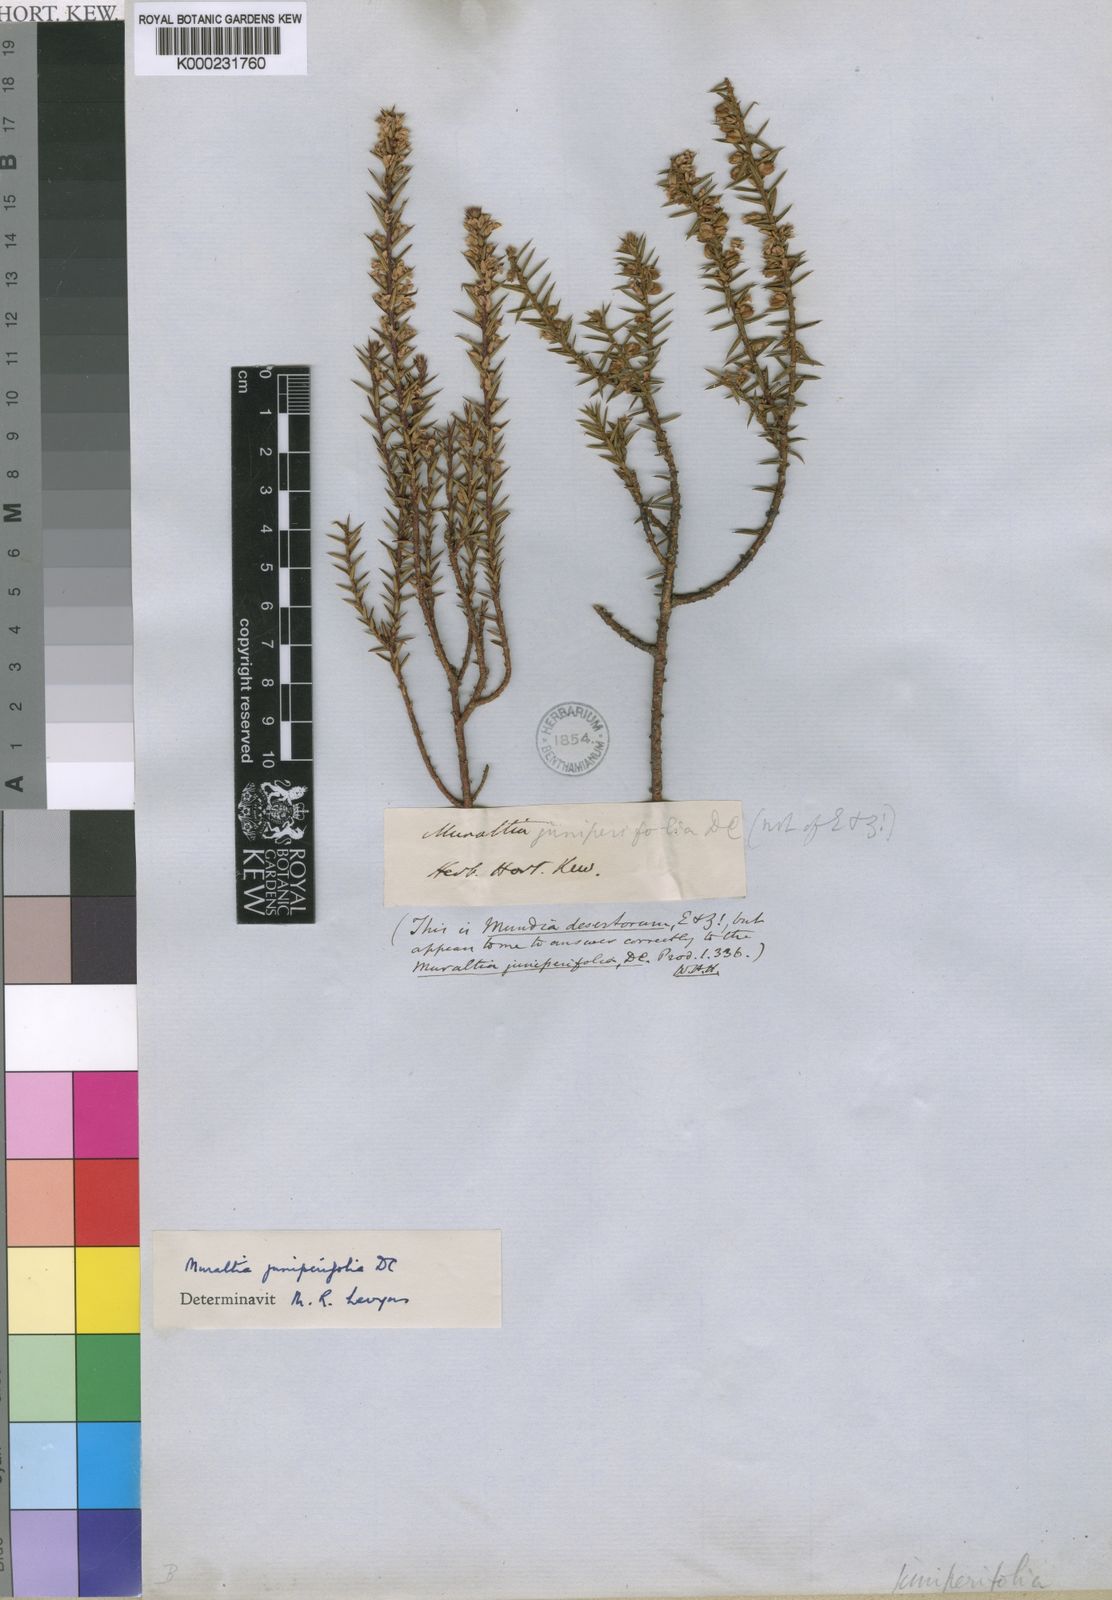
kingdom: Plantae
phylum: Tracheophyta
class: Magnoliopsida
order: Fabales
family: Polygalaceae
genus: Muraltia
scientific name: Muraltia juniperifolia
